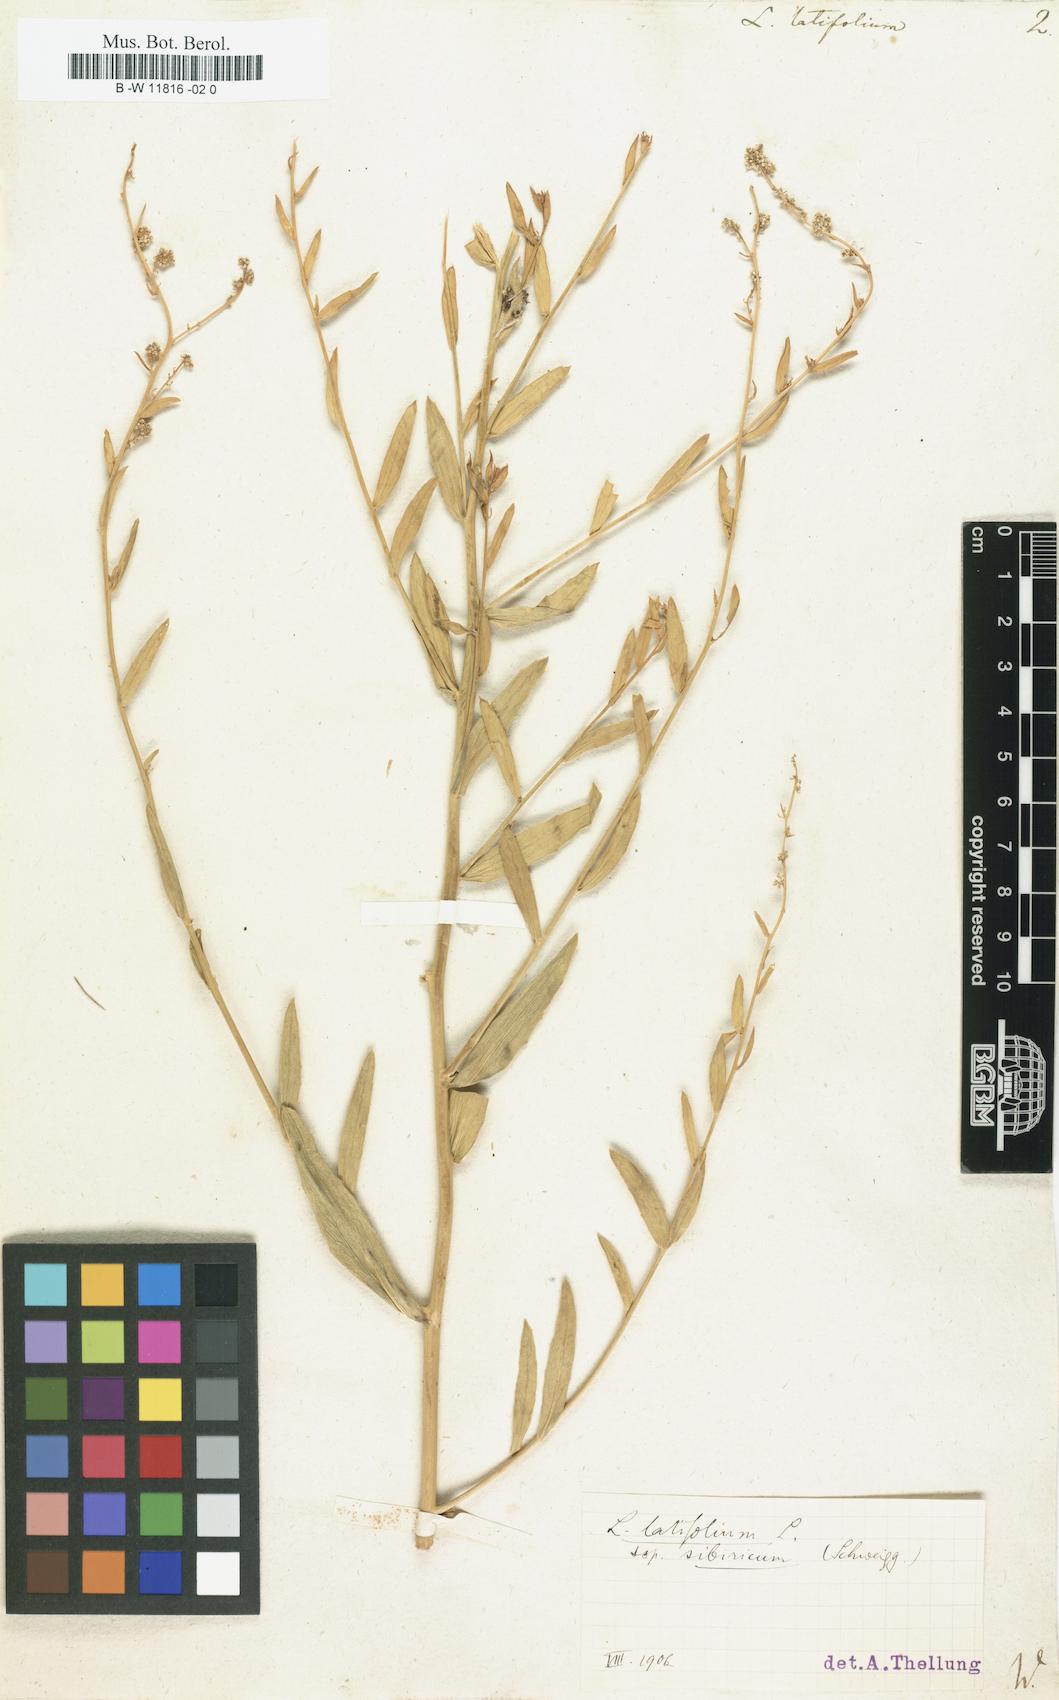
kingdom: Plantae
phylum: Tracheophyta
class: Magnoliopsida
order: Brassicales
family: Brassicaceae
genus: Lepidium
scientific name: Lepidium latifolium
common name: Dittander
